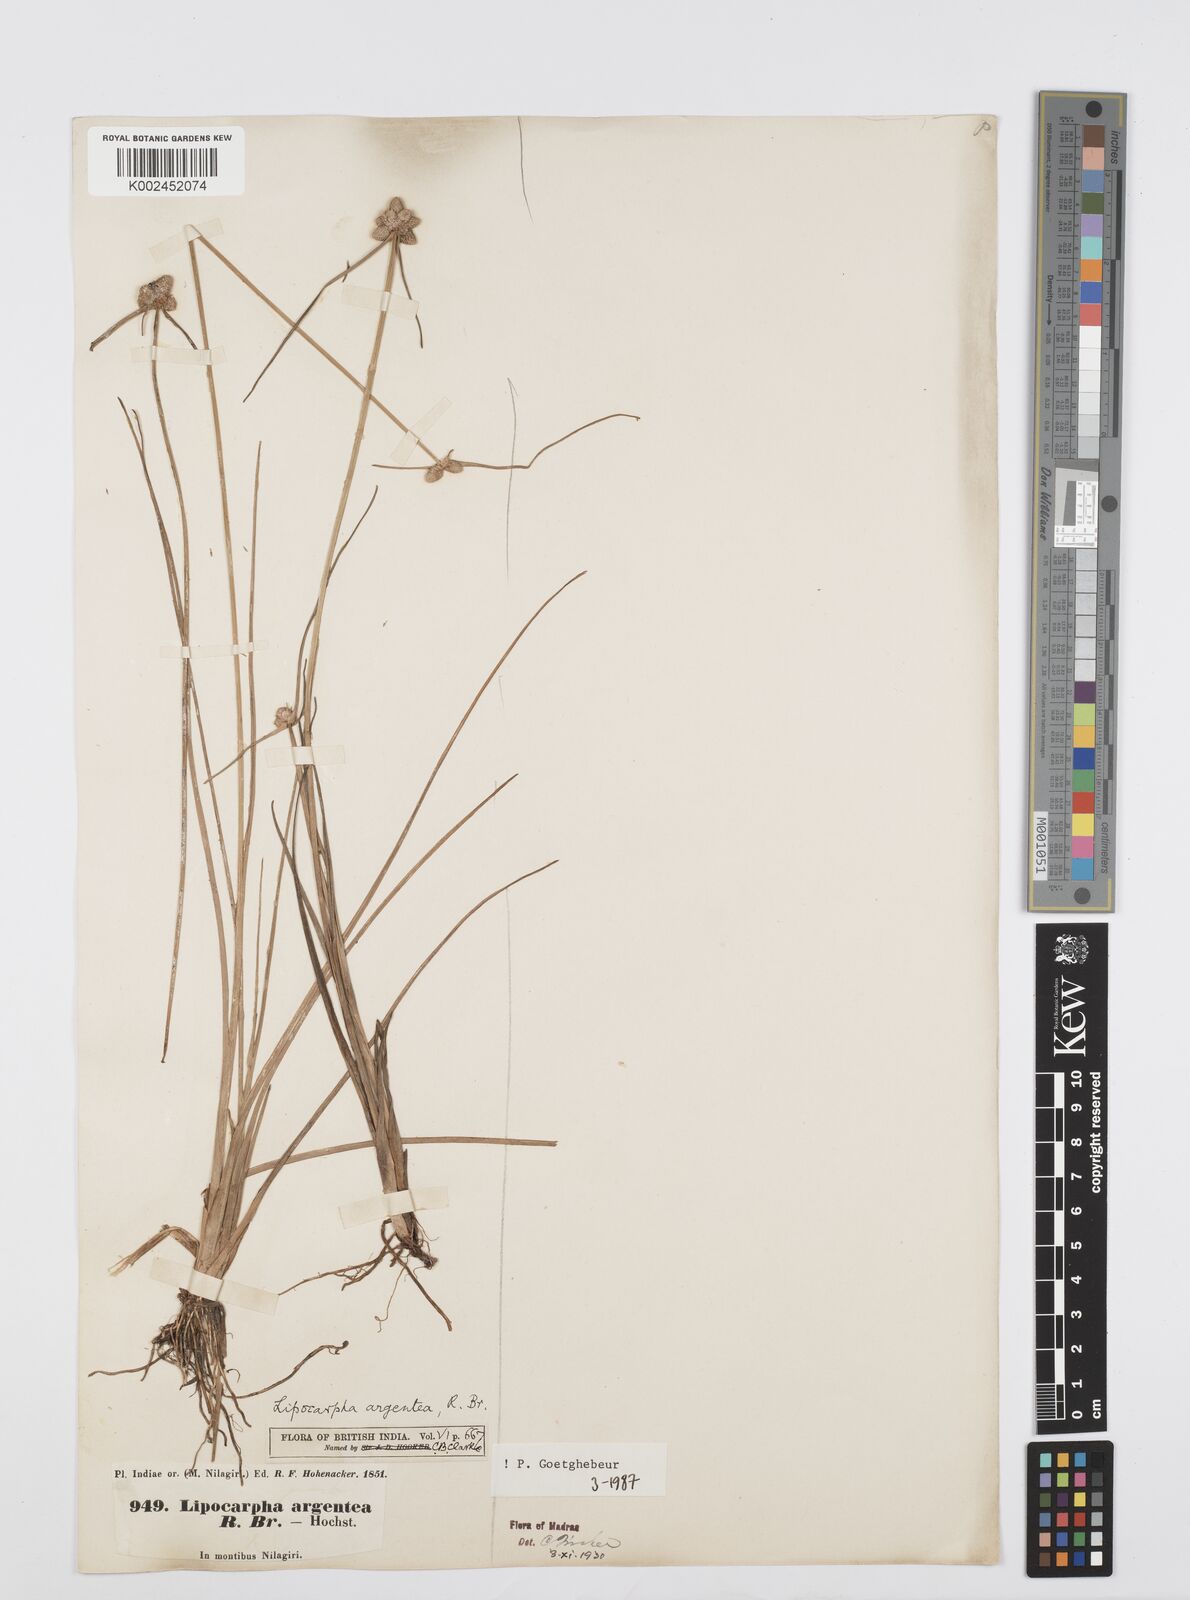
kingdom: Plantae
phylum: Tracheophyta
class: Liliopsida
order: Poales
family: Cyperaceae
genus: Cyperus
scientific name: Cyperus
